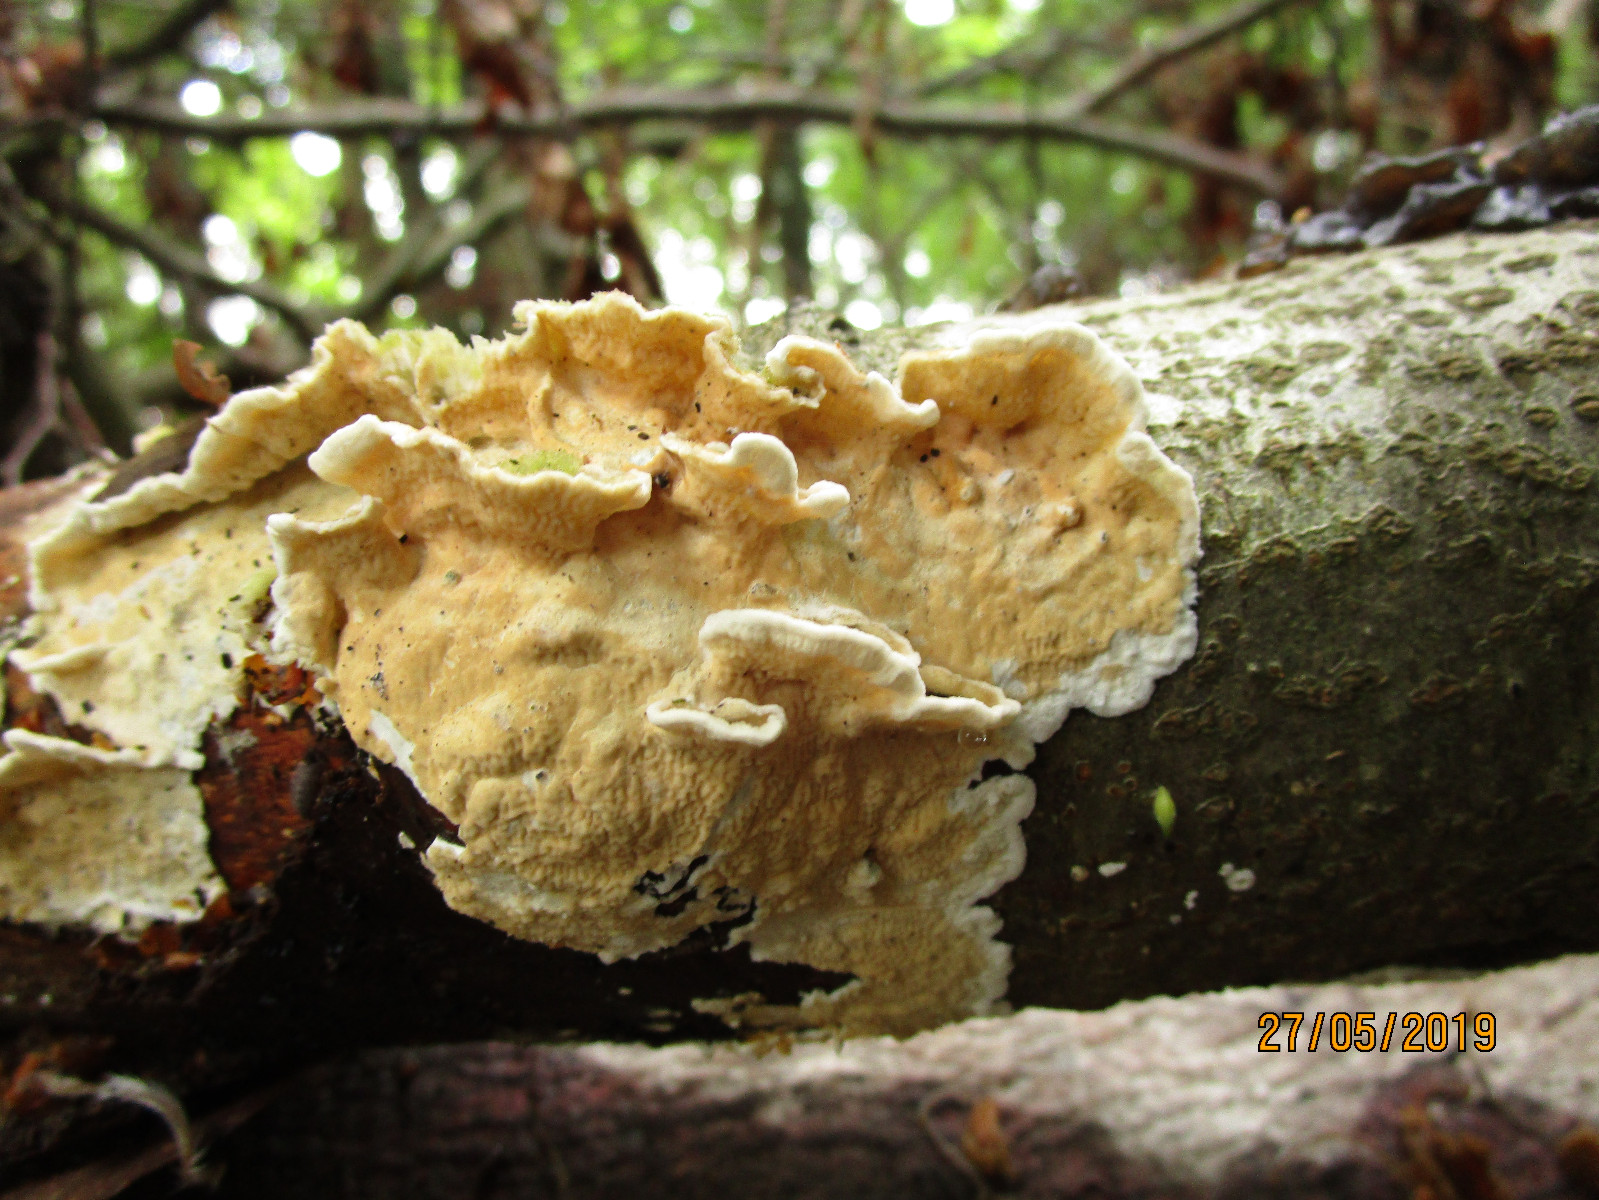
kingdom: Fungi
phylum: Basidiomycota
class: Agaricomycetes
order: Polyporales
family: Irpicaceae
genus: Byssomerulius
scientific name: Byssomerulius corium
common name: læder-åresvamp
